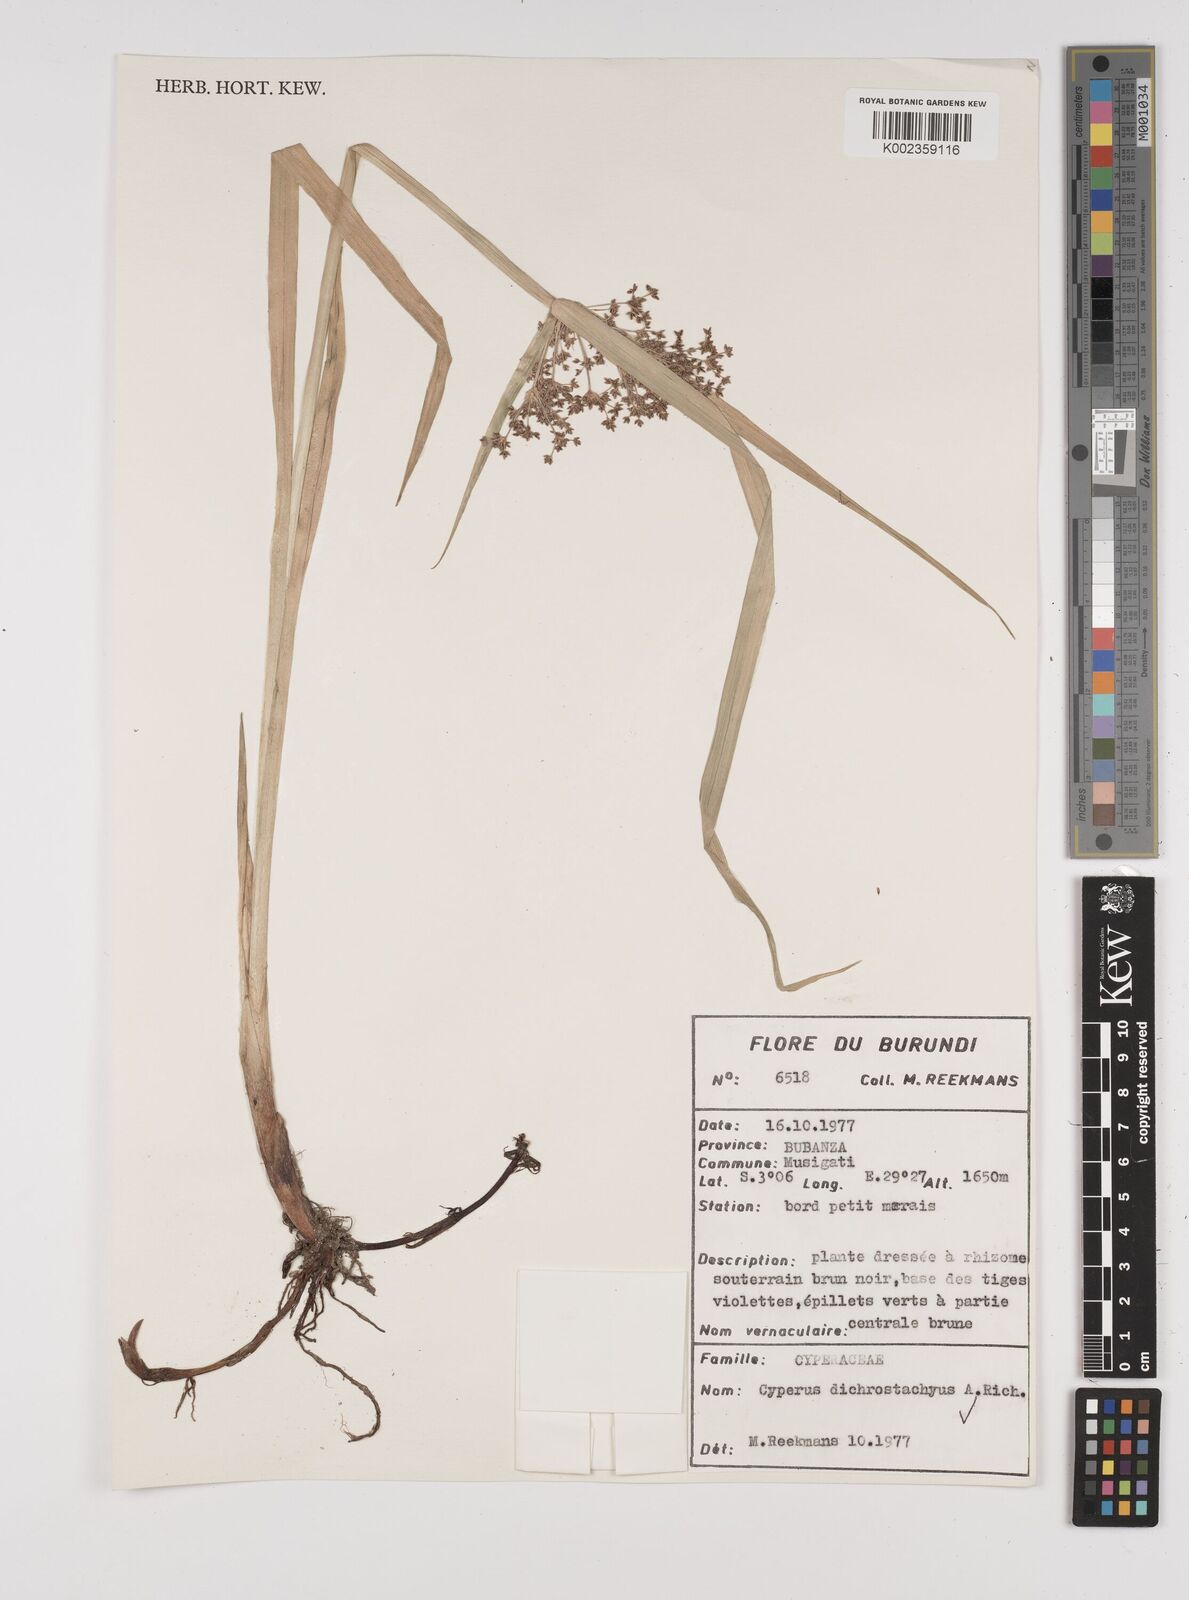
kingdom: Plantae
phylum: Tracheophyta
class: Liliopsida
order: Poales
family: Cyperaceae
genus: Cyperus
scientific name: Cyperus dichrostachyus
